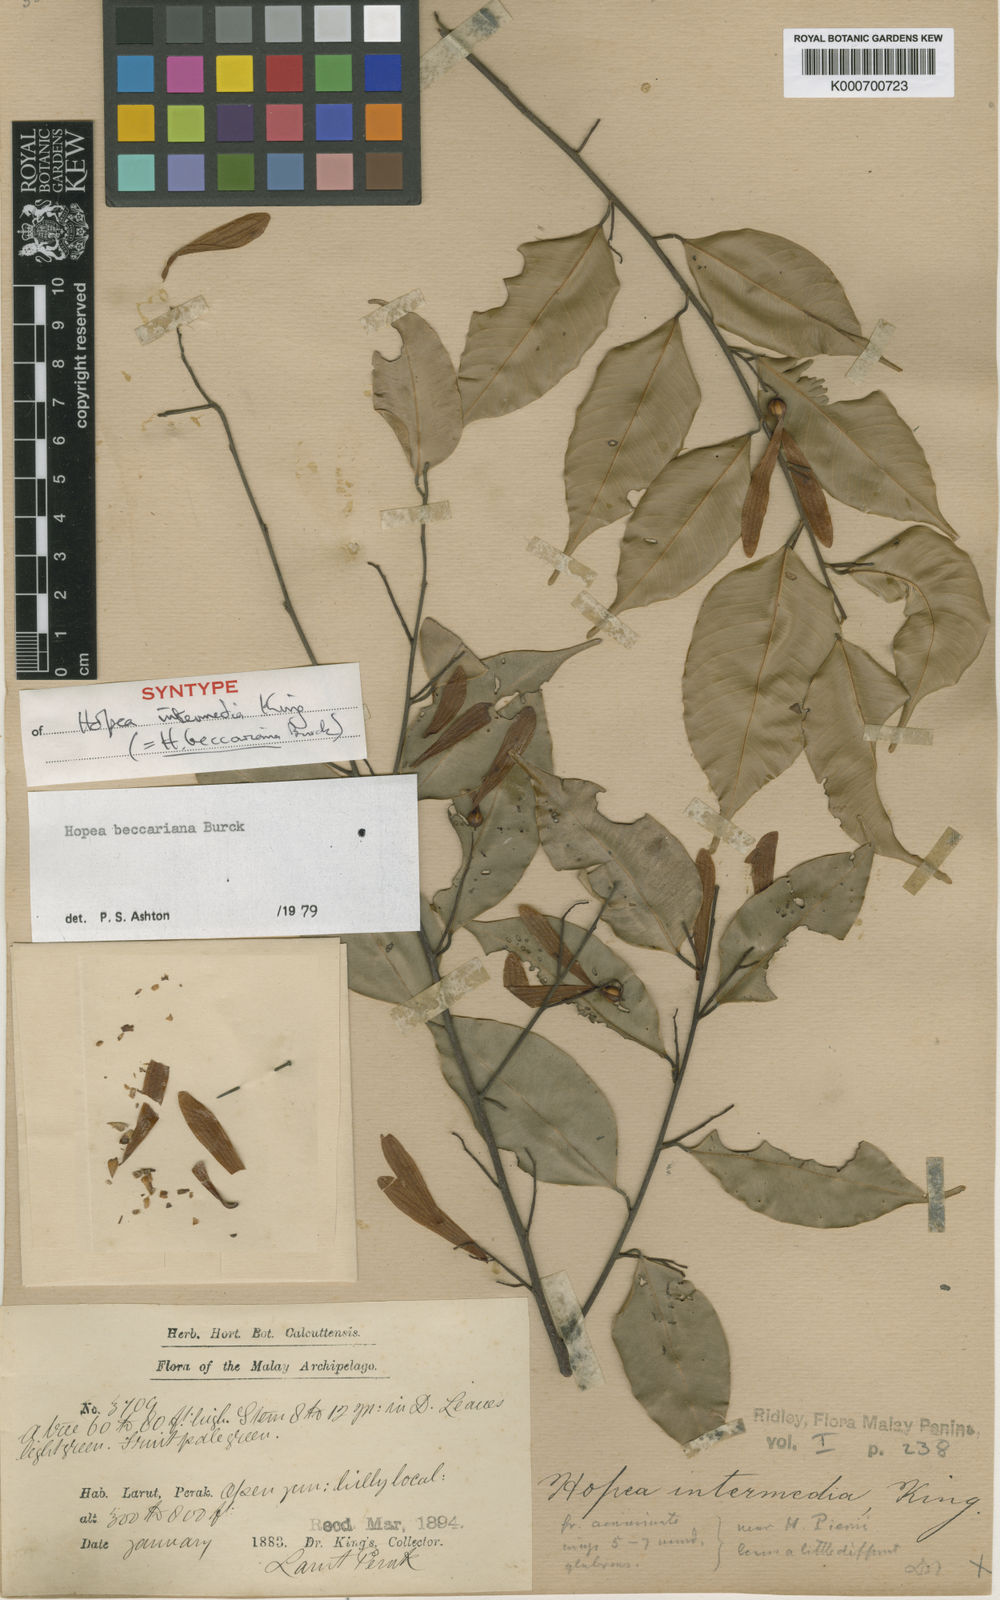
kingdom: Plantae
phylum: Tracheophyta
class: Magnoliopsida
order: Malvales
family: Dipterocarpaceae
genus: Hopea
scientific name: Hopea beccariana
